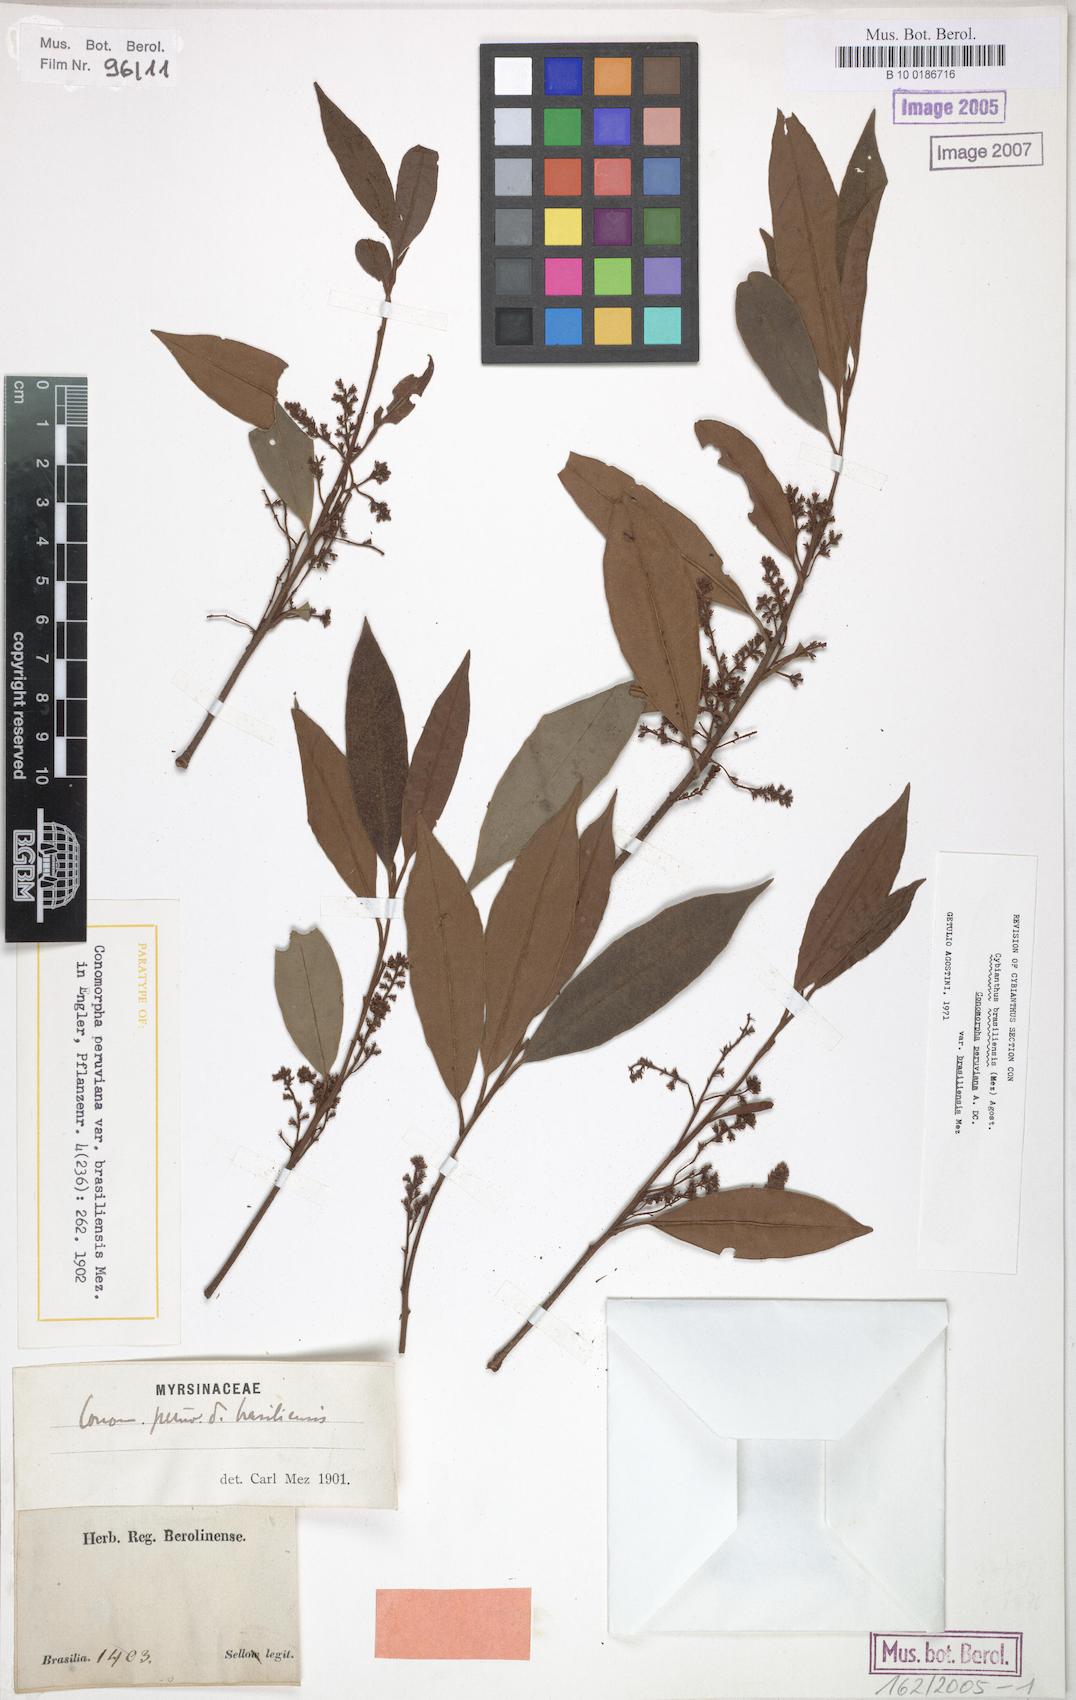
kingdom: Plantae
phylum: Tracheophyta
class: Magnoliopsida
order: Ericales
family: Primulaceae
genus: Cybianthus
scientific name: Cybianthus peruvianus
